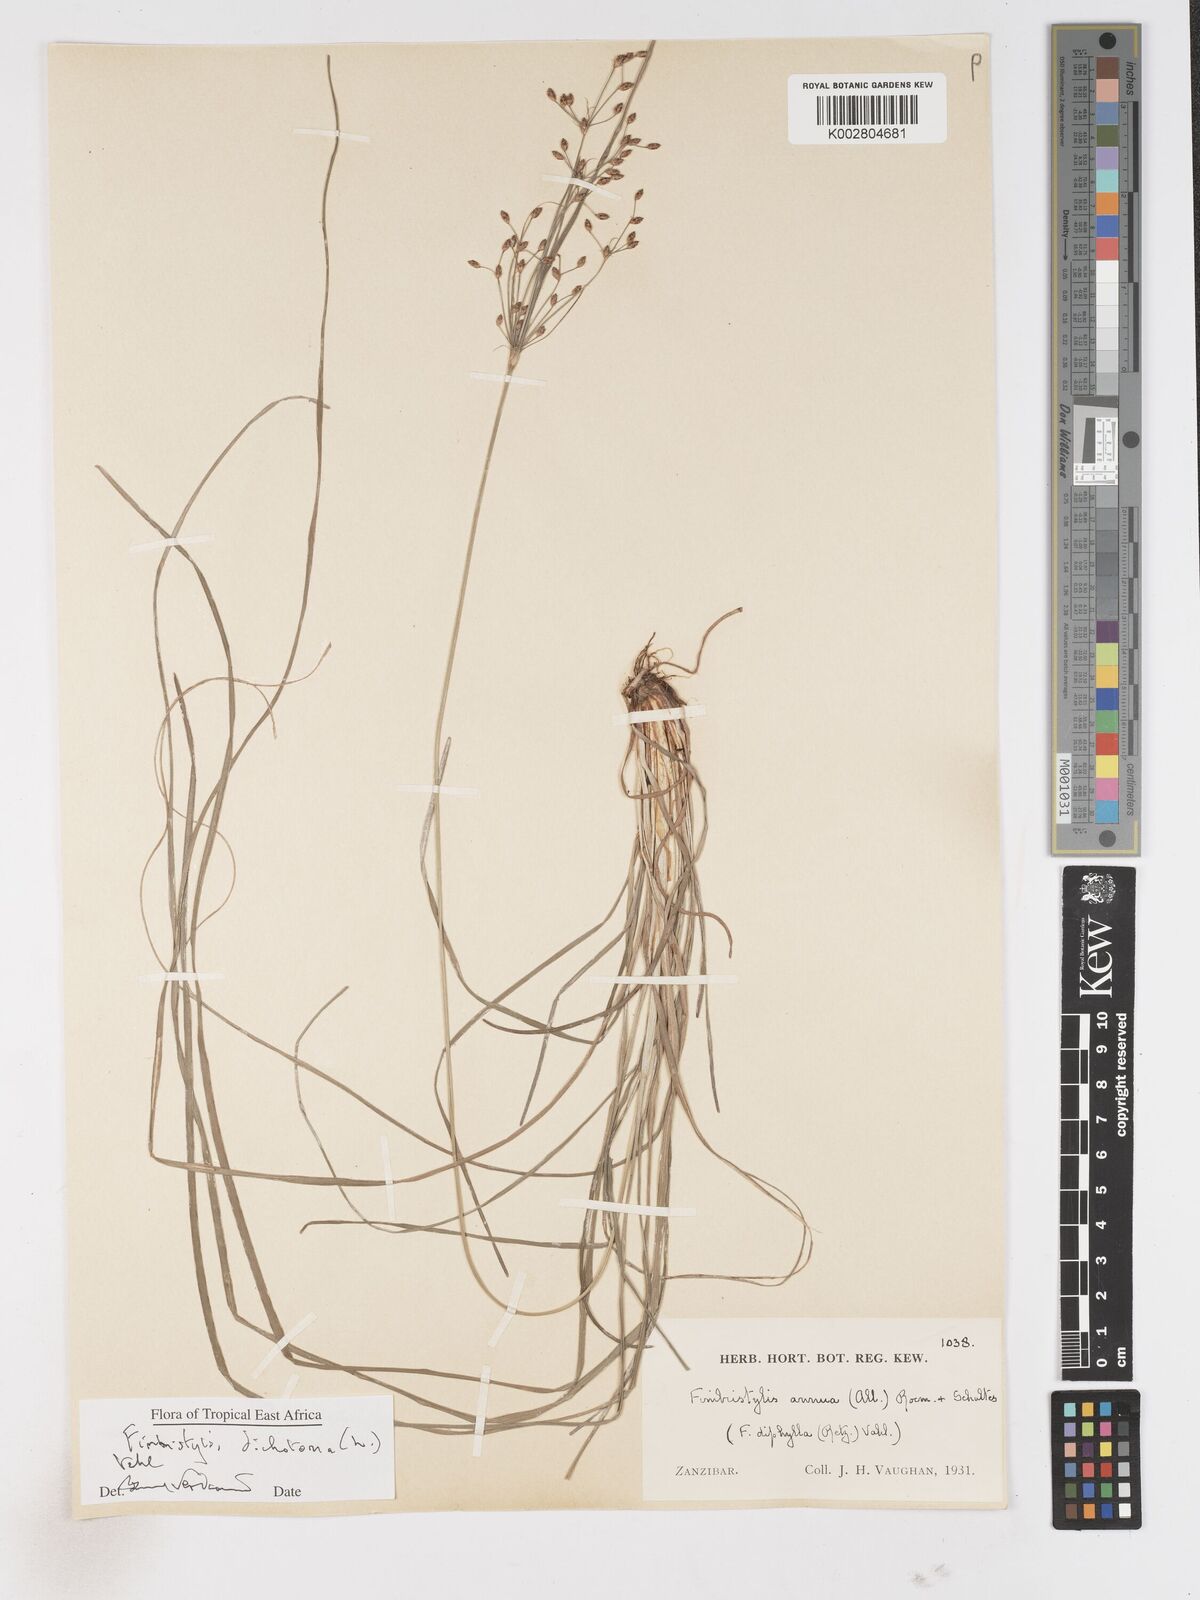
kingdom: Plantae
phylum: Tracheophyta
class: Liliopsida
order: Poales
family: Cyperaceae
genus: Fimbristylis
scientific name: Fimbristylis dichotoma
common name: Forked fimbry
